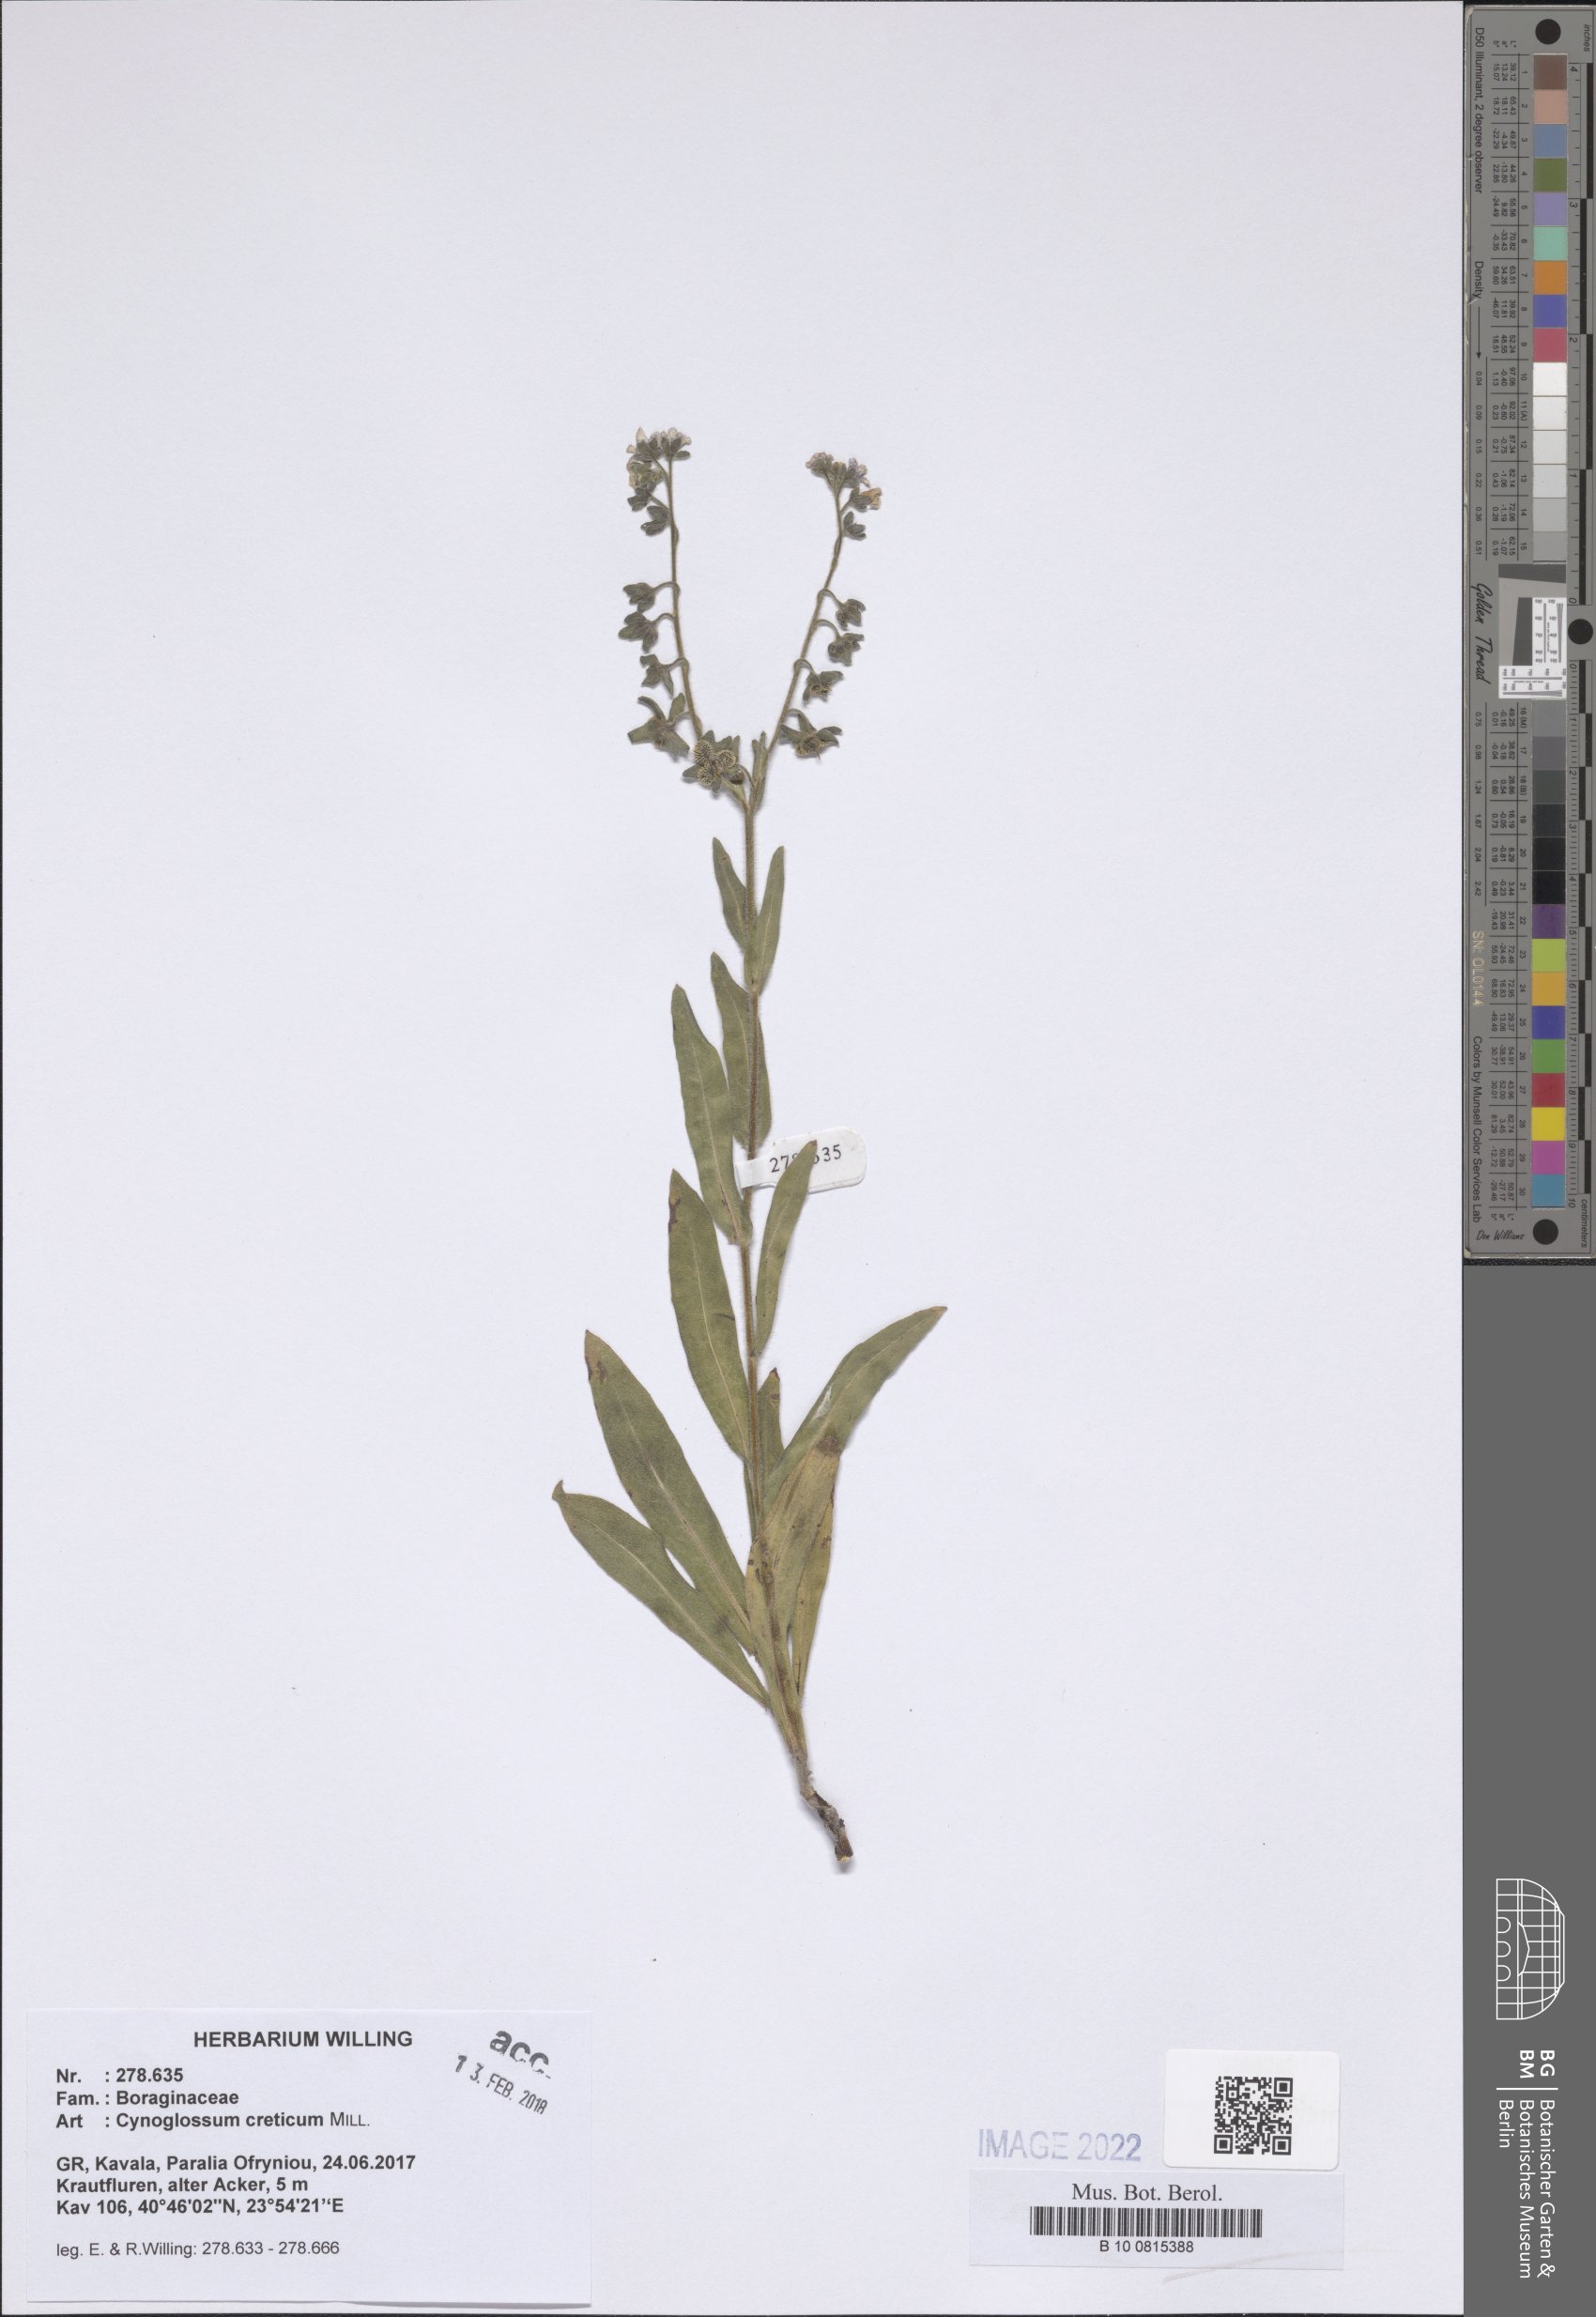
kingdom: Plantae
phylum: Tracheophyta
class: Magnoliopsida
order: Boraginales
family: Boraginaceae
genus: Cynoglossum
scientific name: Cynoglossum creticum
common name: Blue hound's tongue
